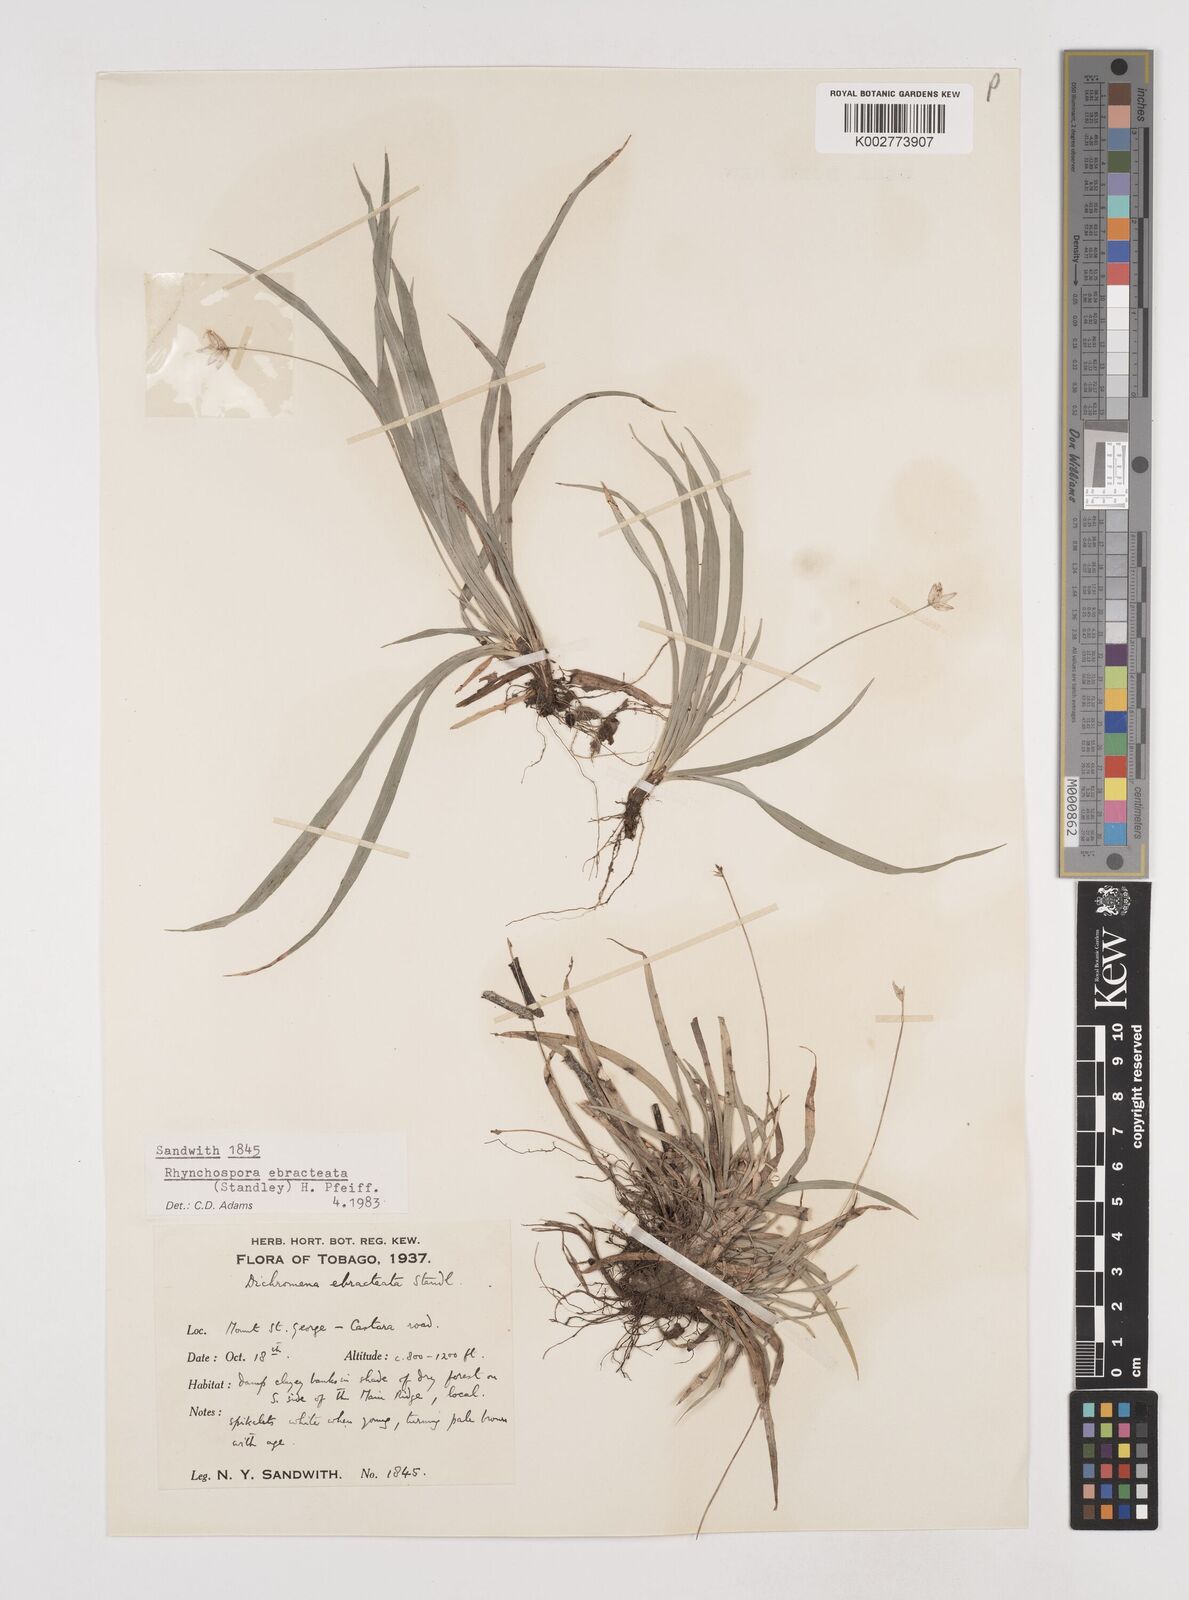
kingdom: Plantae
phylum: Tracheophyta
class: Liliopsida
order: Poales
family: Cyperaceae
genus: Rhynchospora
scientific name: Rhynchospora ebracteata
